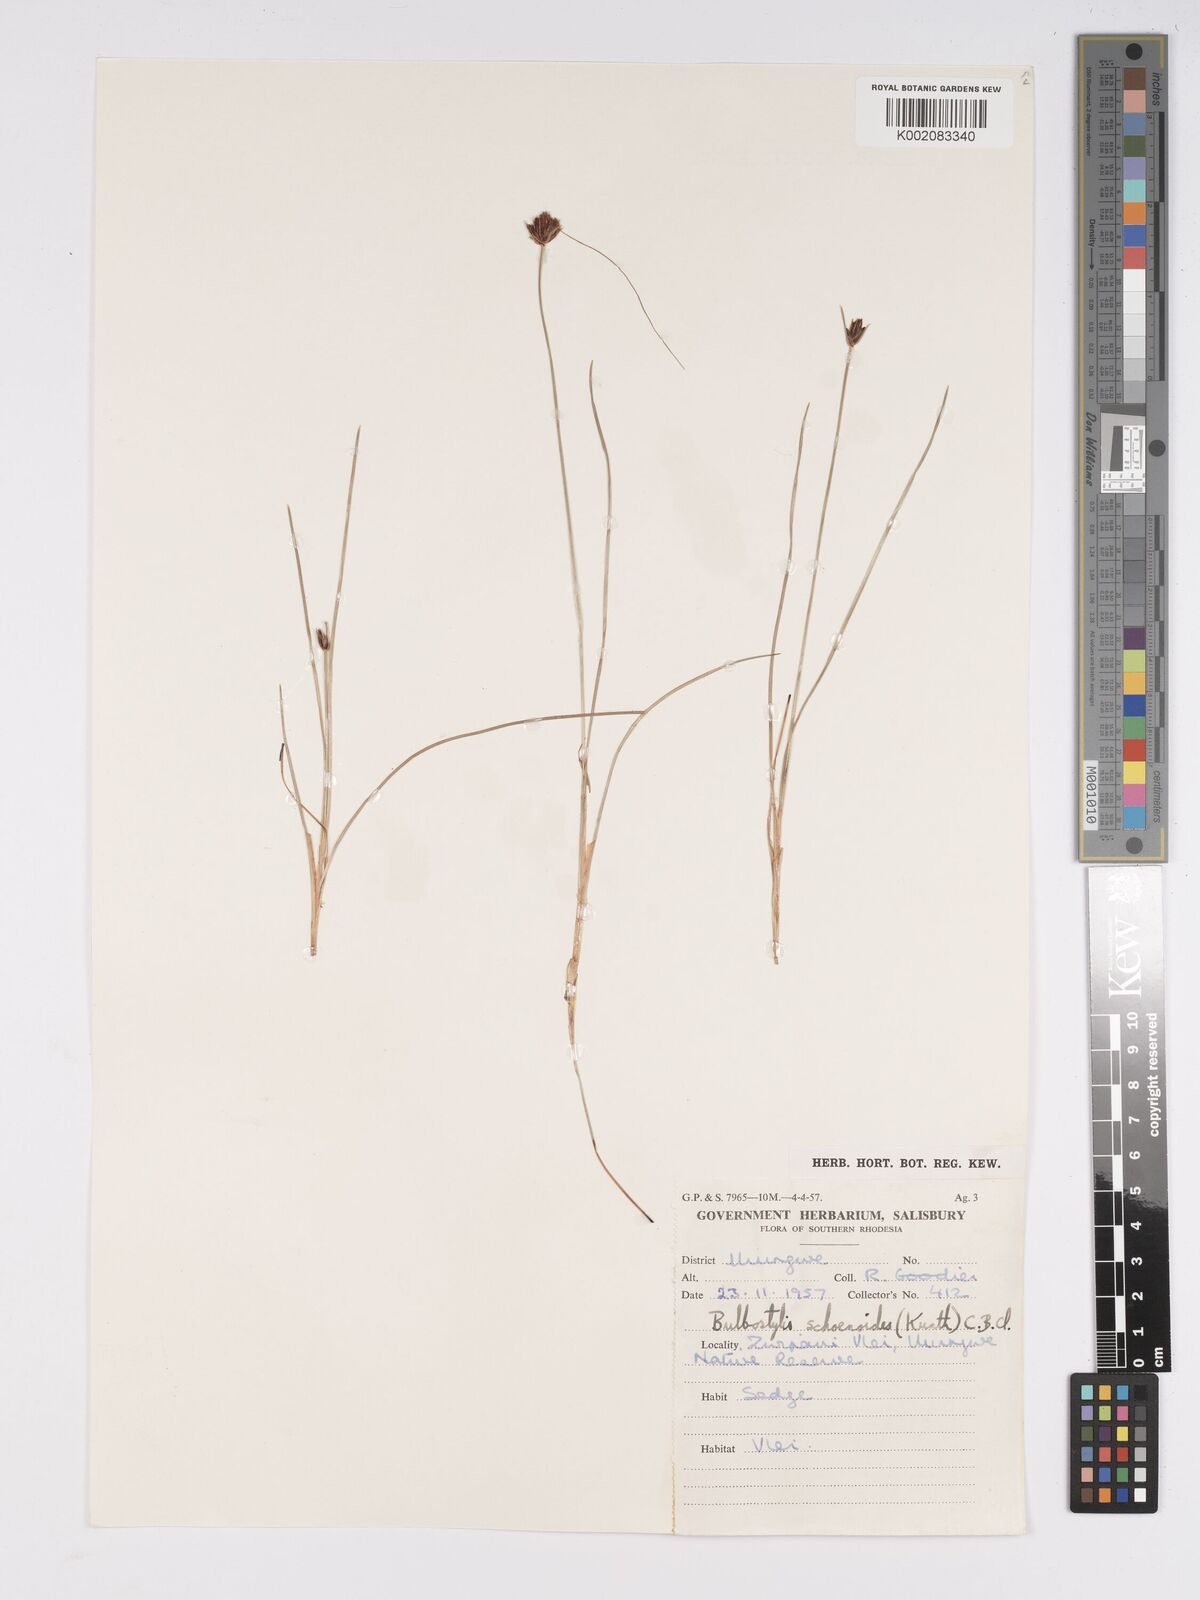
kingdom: Plantae
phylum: Tracheophyta
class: Liliopsida
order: Poales
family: Cyperaceae
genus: Bulbostylis
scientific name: Bulbostylis schoenoides
